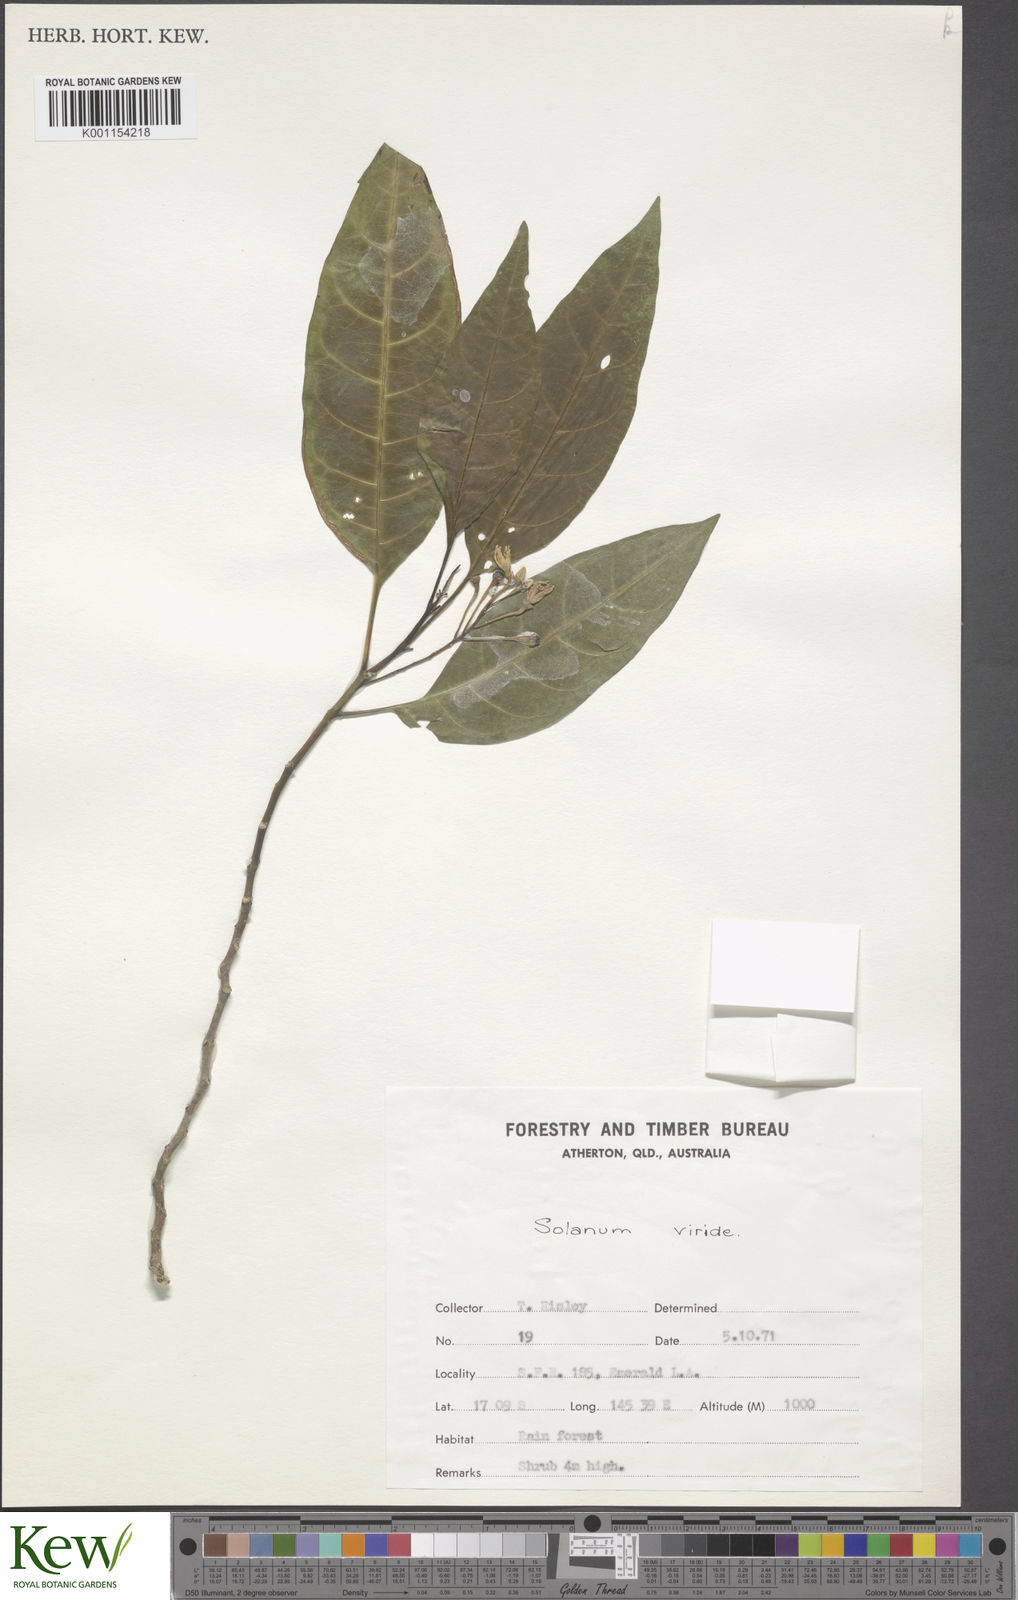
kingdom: Plantae
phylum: Tracheophyta
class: Magnoliopsida
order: Solanales
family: Solanaceae
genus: Solanum
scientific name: Solanum viridifolium
